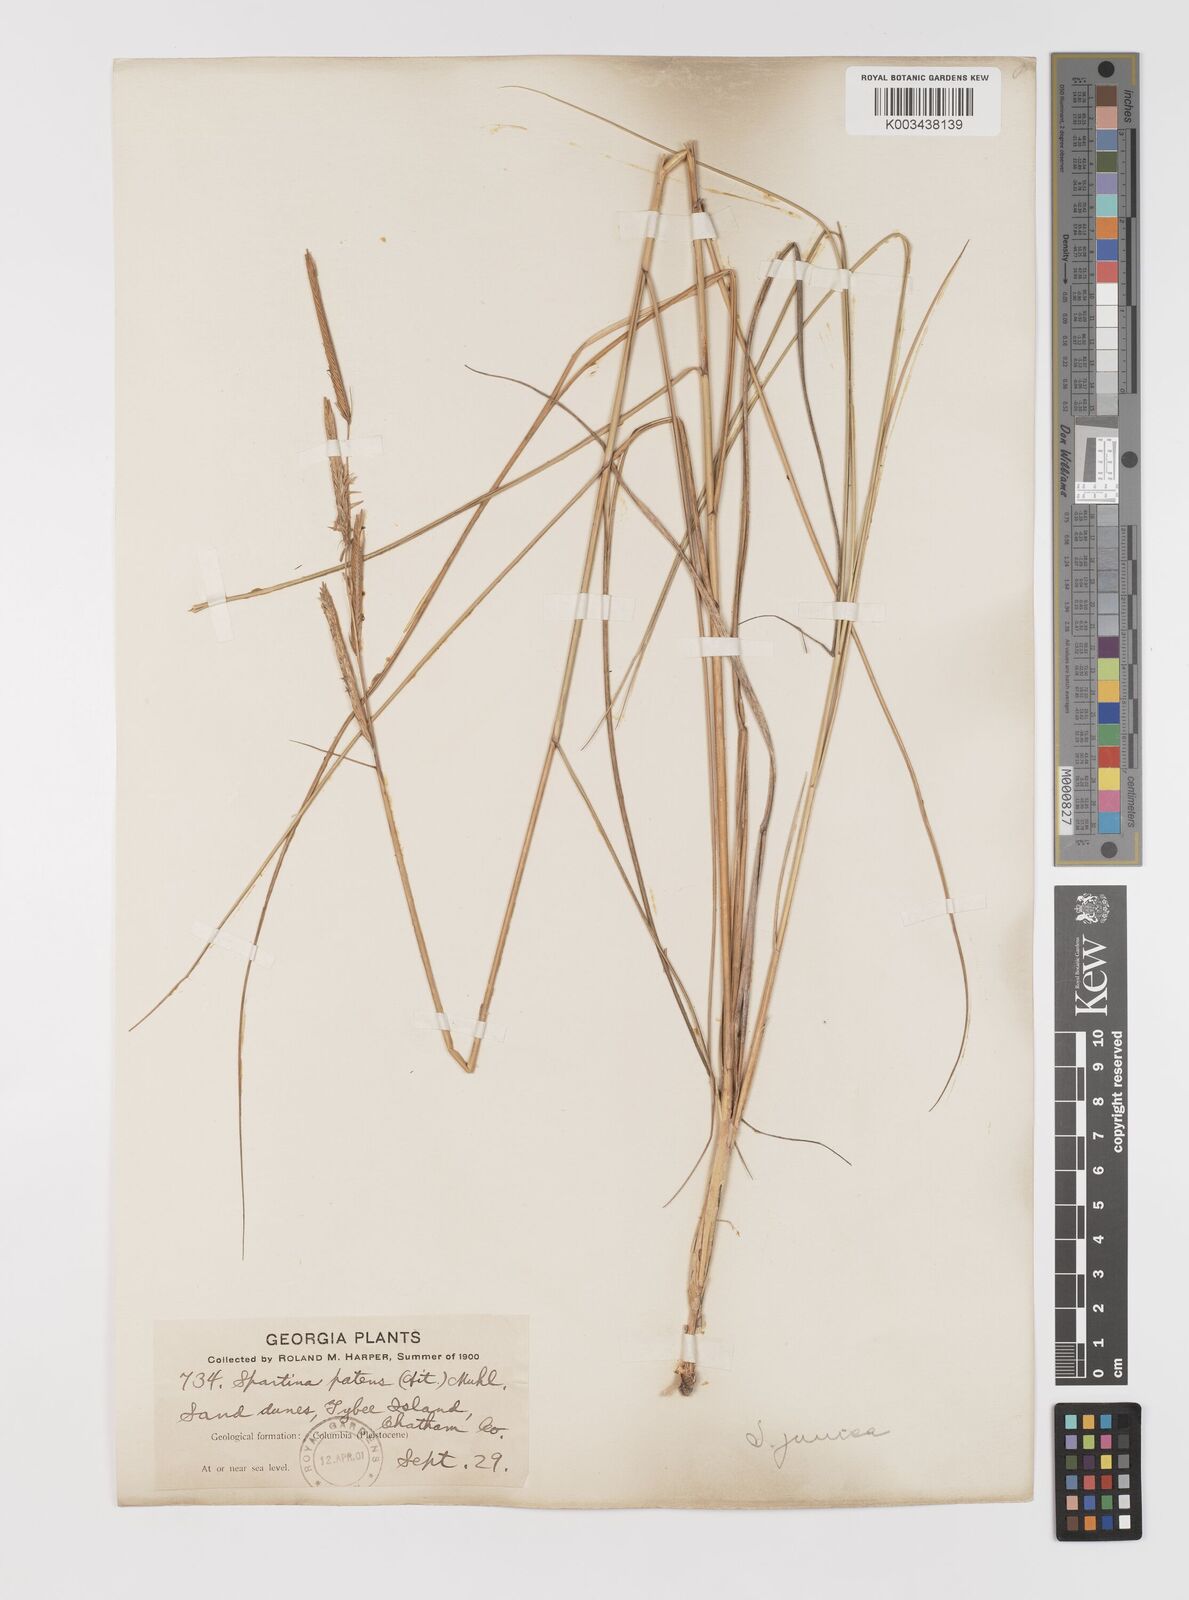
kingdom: Plantae
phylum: Tracheophyta
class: Liliopsida
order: Poales
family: Poaceae
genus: Sporobolus
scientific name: Sporobolus pumilus
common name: Highwater grass
